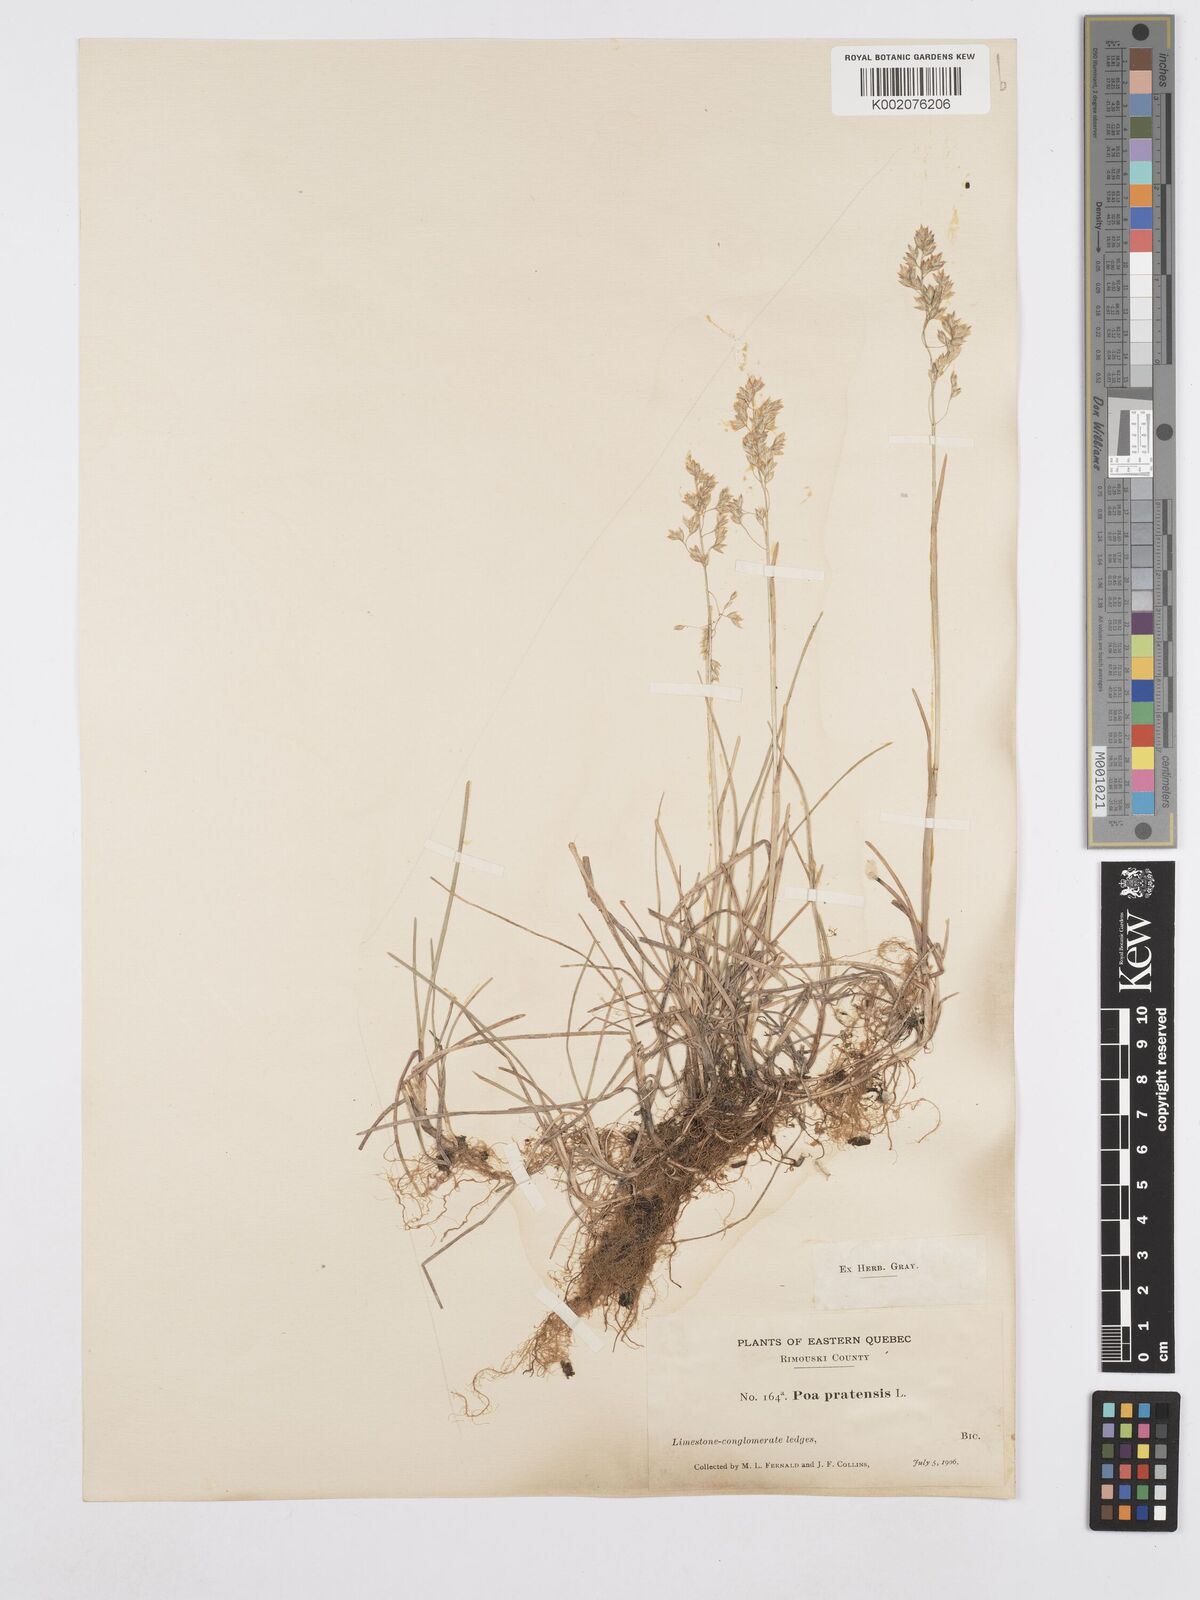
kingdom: Plantae
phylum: Tracheophyta
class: Liliopsida
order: Poales
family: Poaceae
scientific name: Poaceae
